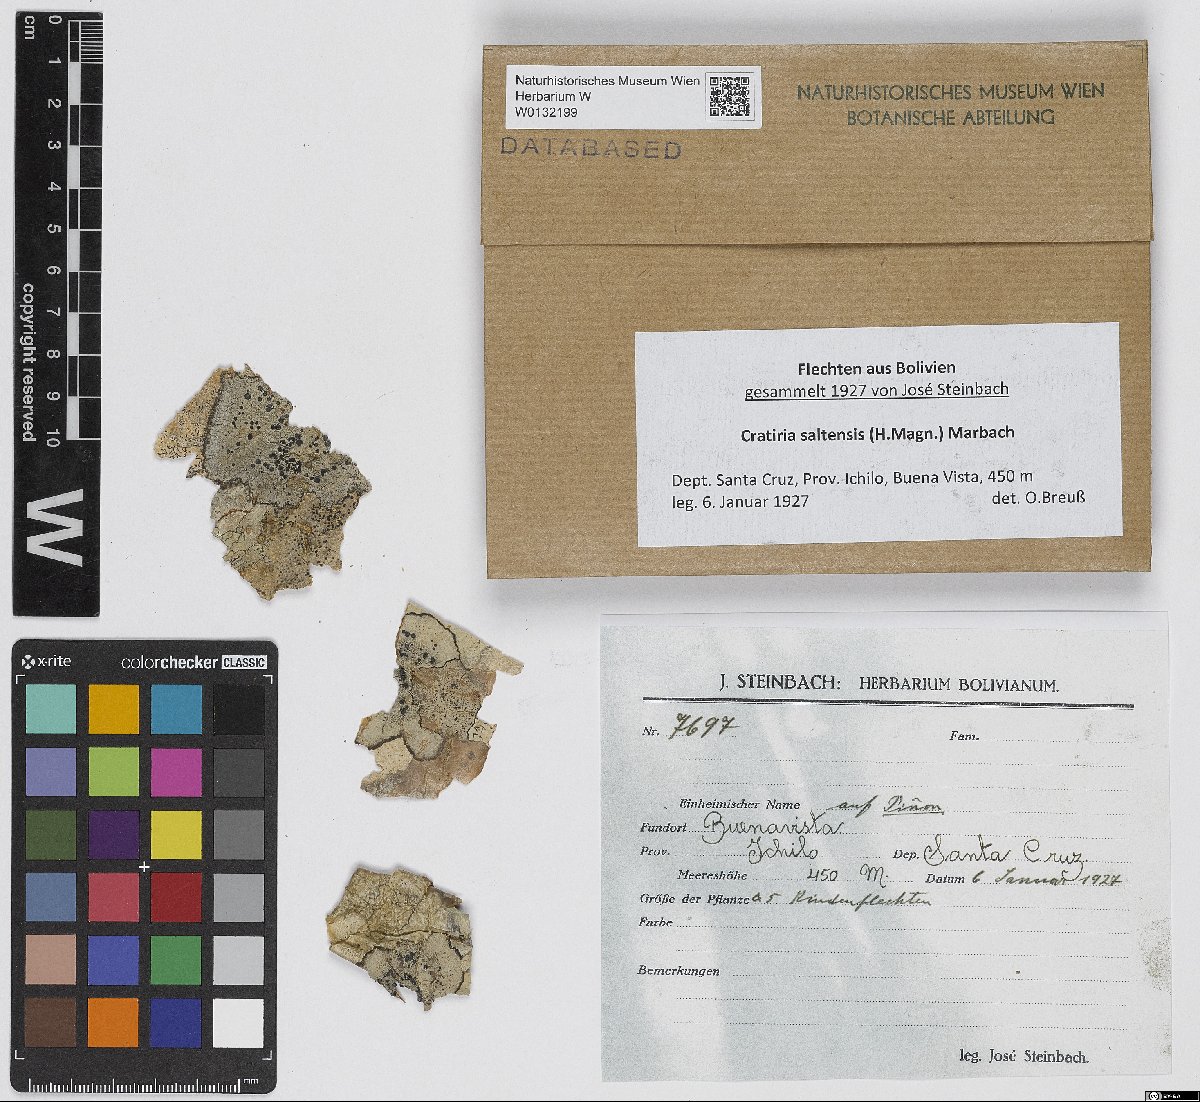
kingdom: Fungi
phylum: Ascomycota
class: Lecanoromycetes
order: Caliciales
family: Caliciaceae
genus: Cratiria
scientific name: Cratiria saltensis
